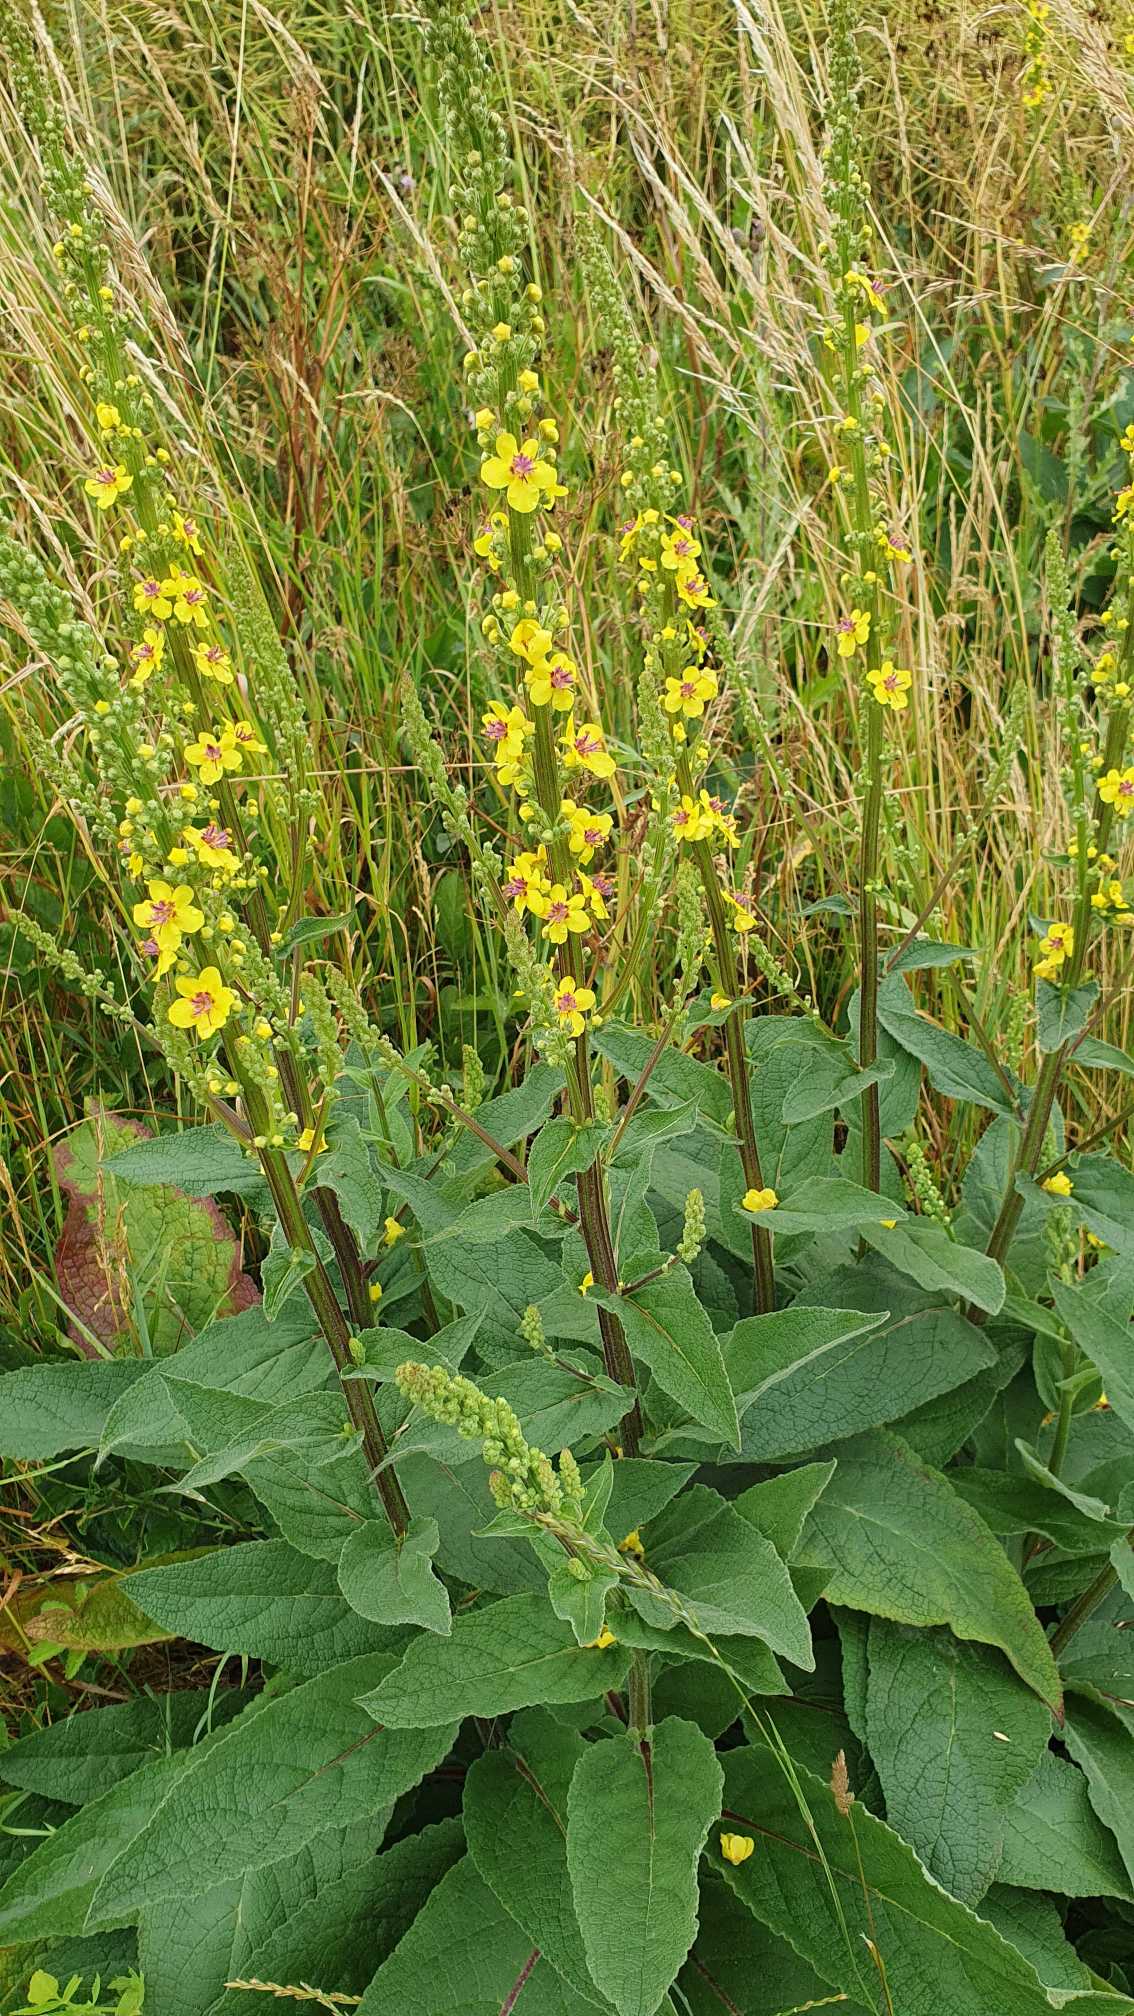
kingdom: Plantae
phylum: Tracheophyta
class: Magnoliopsida
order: Lamiales
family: Scrophulariaceae
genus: Verbascum
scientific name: Verbascum nigrum
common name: Mørk kongelys
